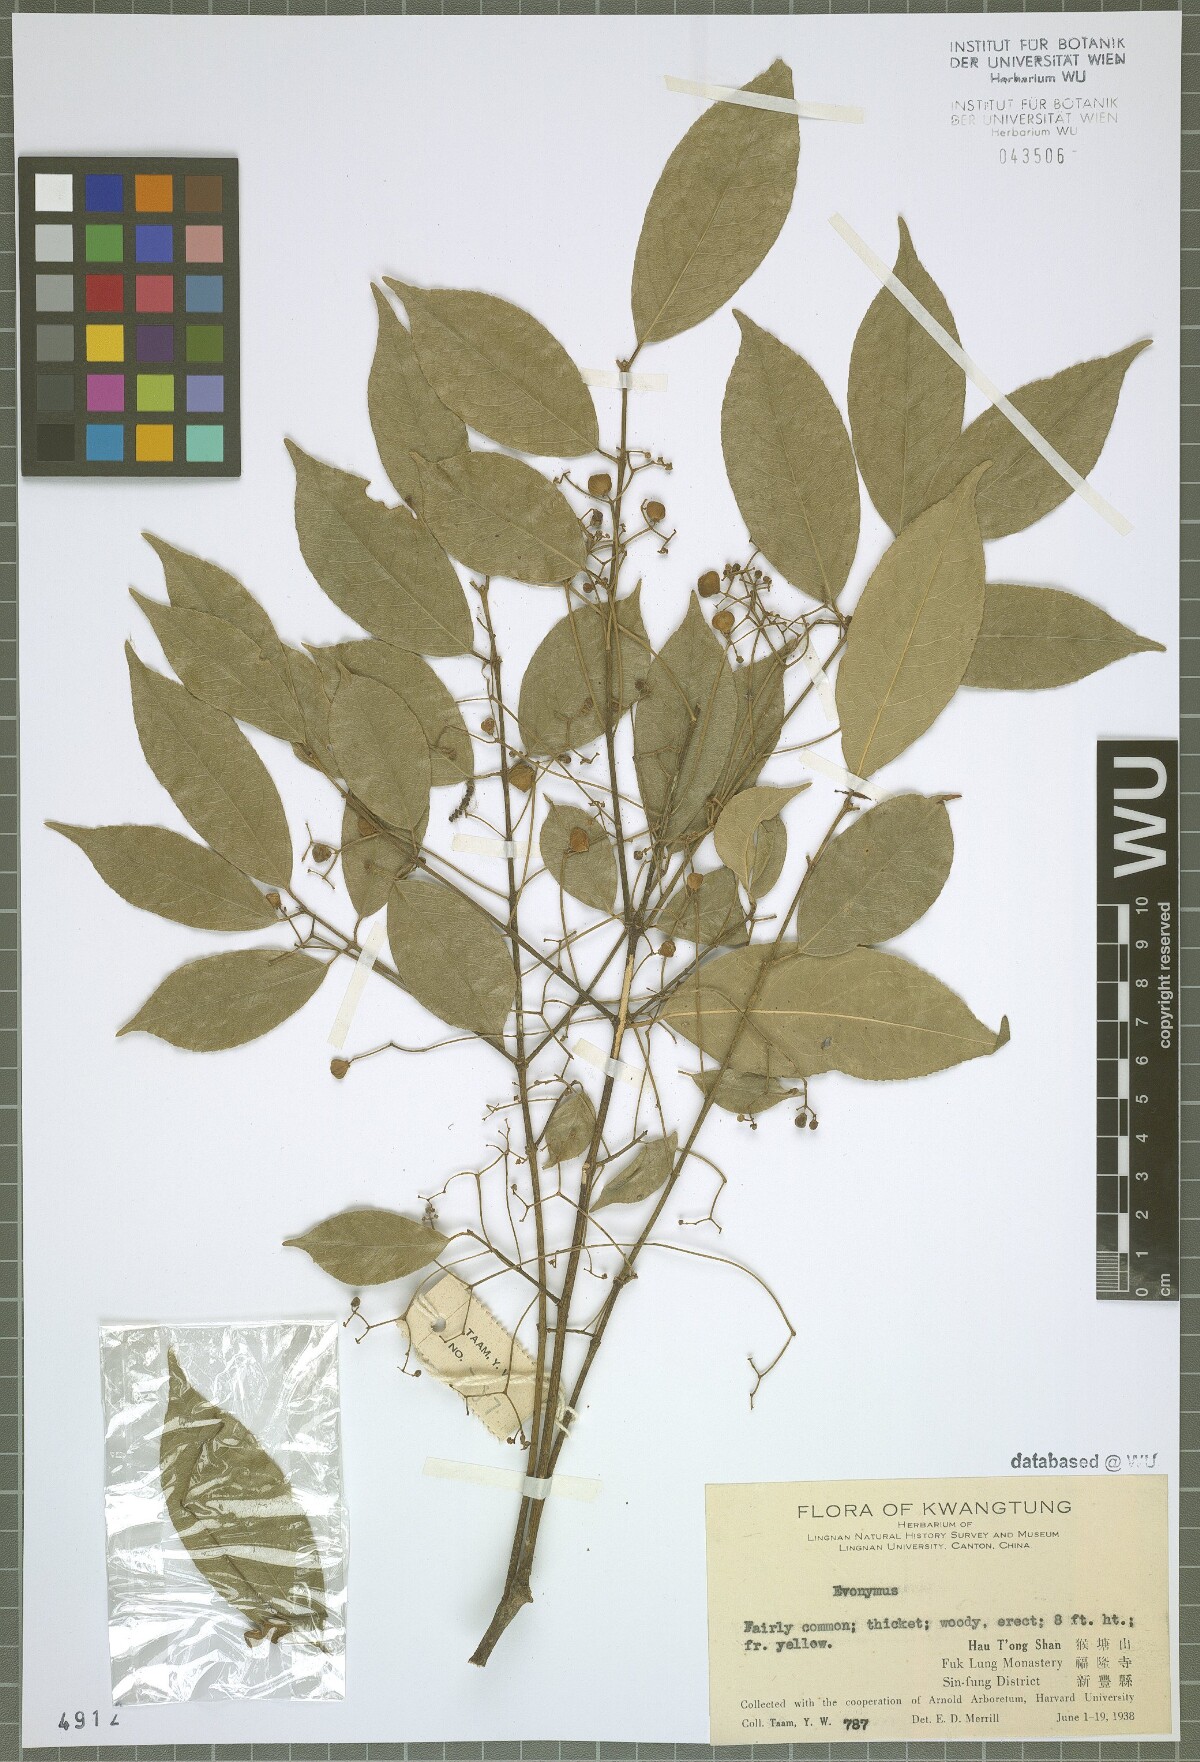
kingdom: Plantae
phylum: Tracheophyta
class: Magnoliopsida
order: Celastrales
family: Celastraceae
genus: Evonymopsis
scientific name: Evonymopsis
